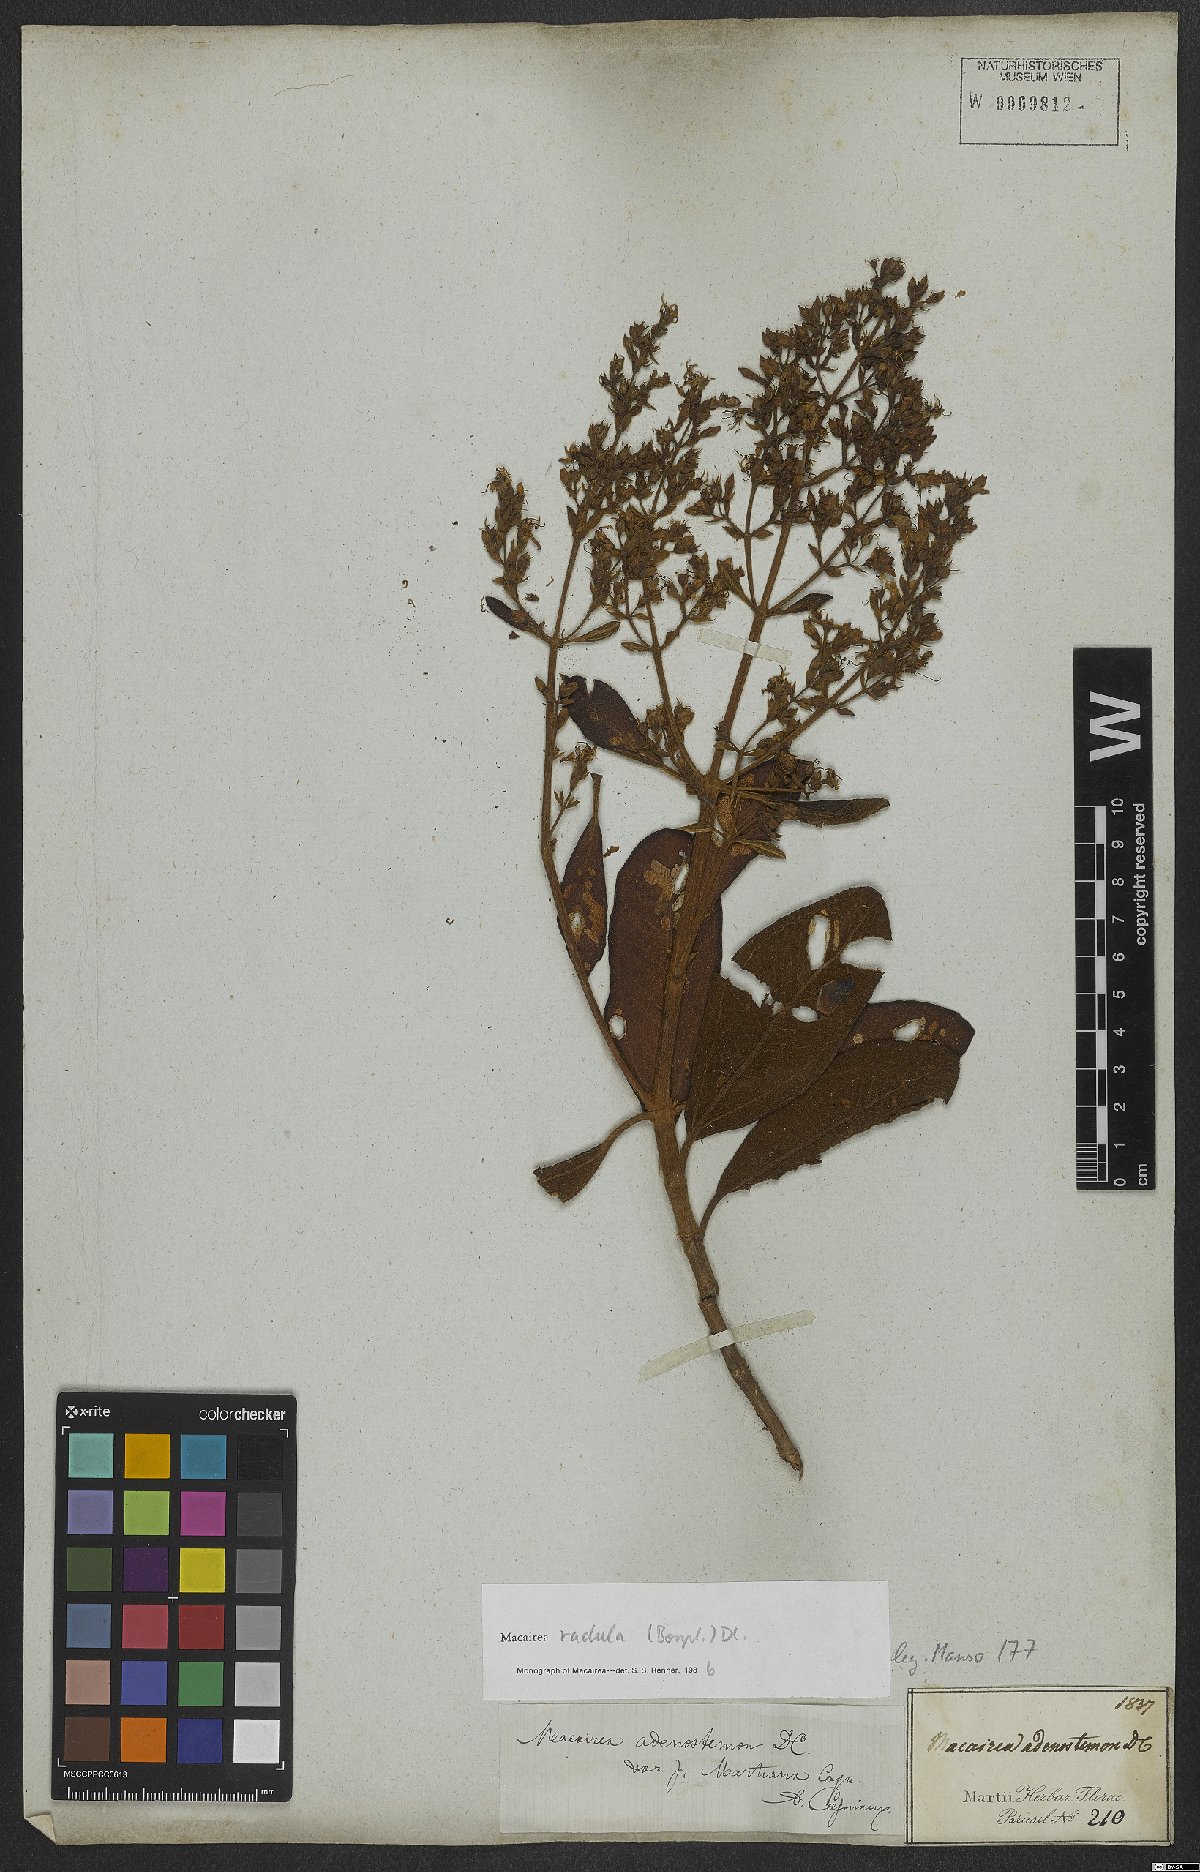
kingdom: Plantae
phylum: Tracheophyta
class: Magnoliopsida
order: Myrtales
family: Melastomataceae
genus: Macairea
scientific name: Macairea radula
